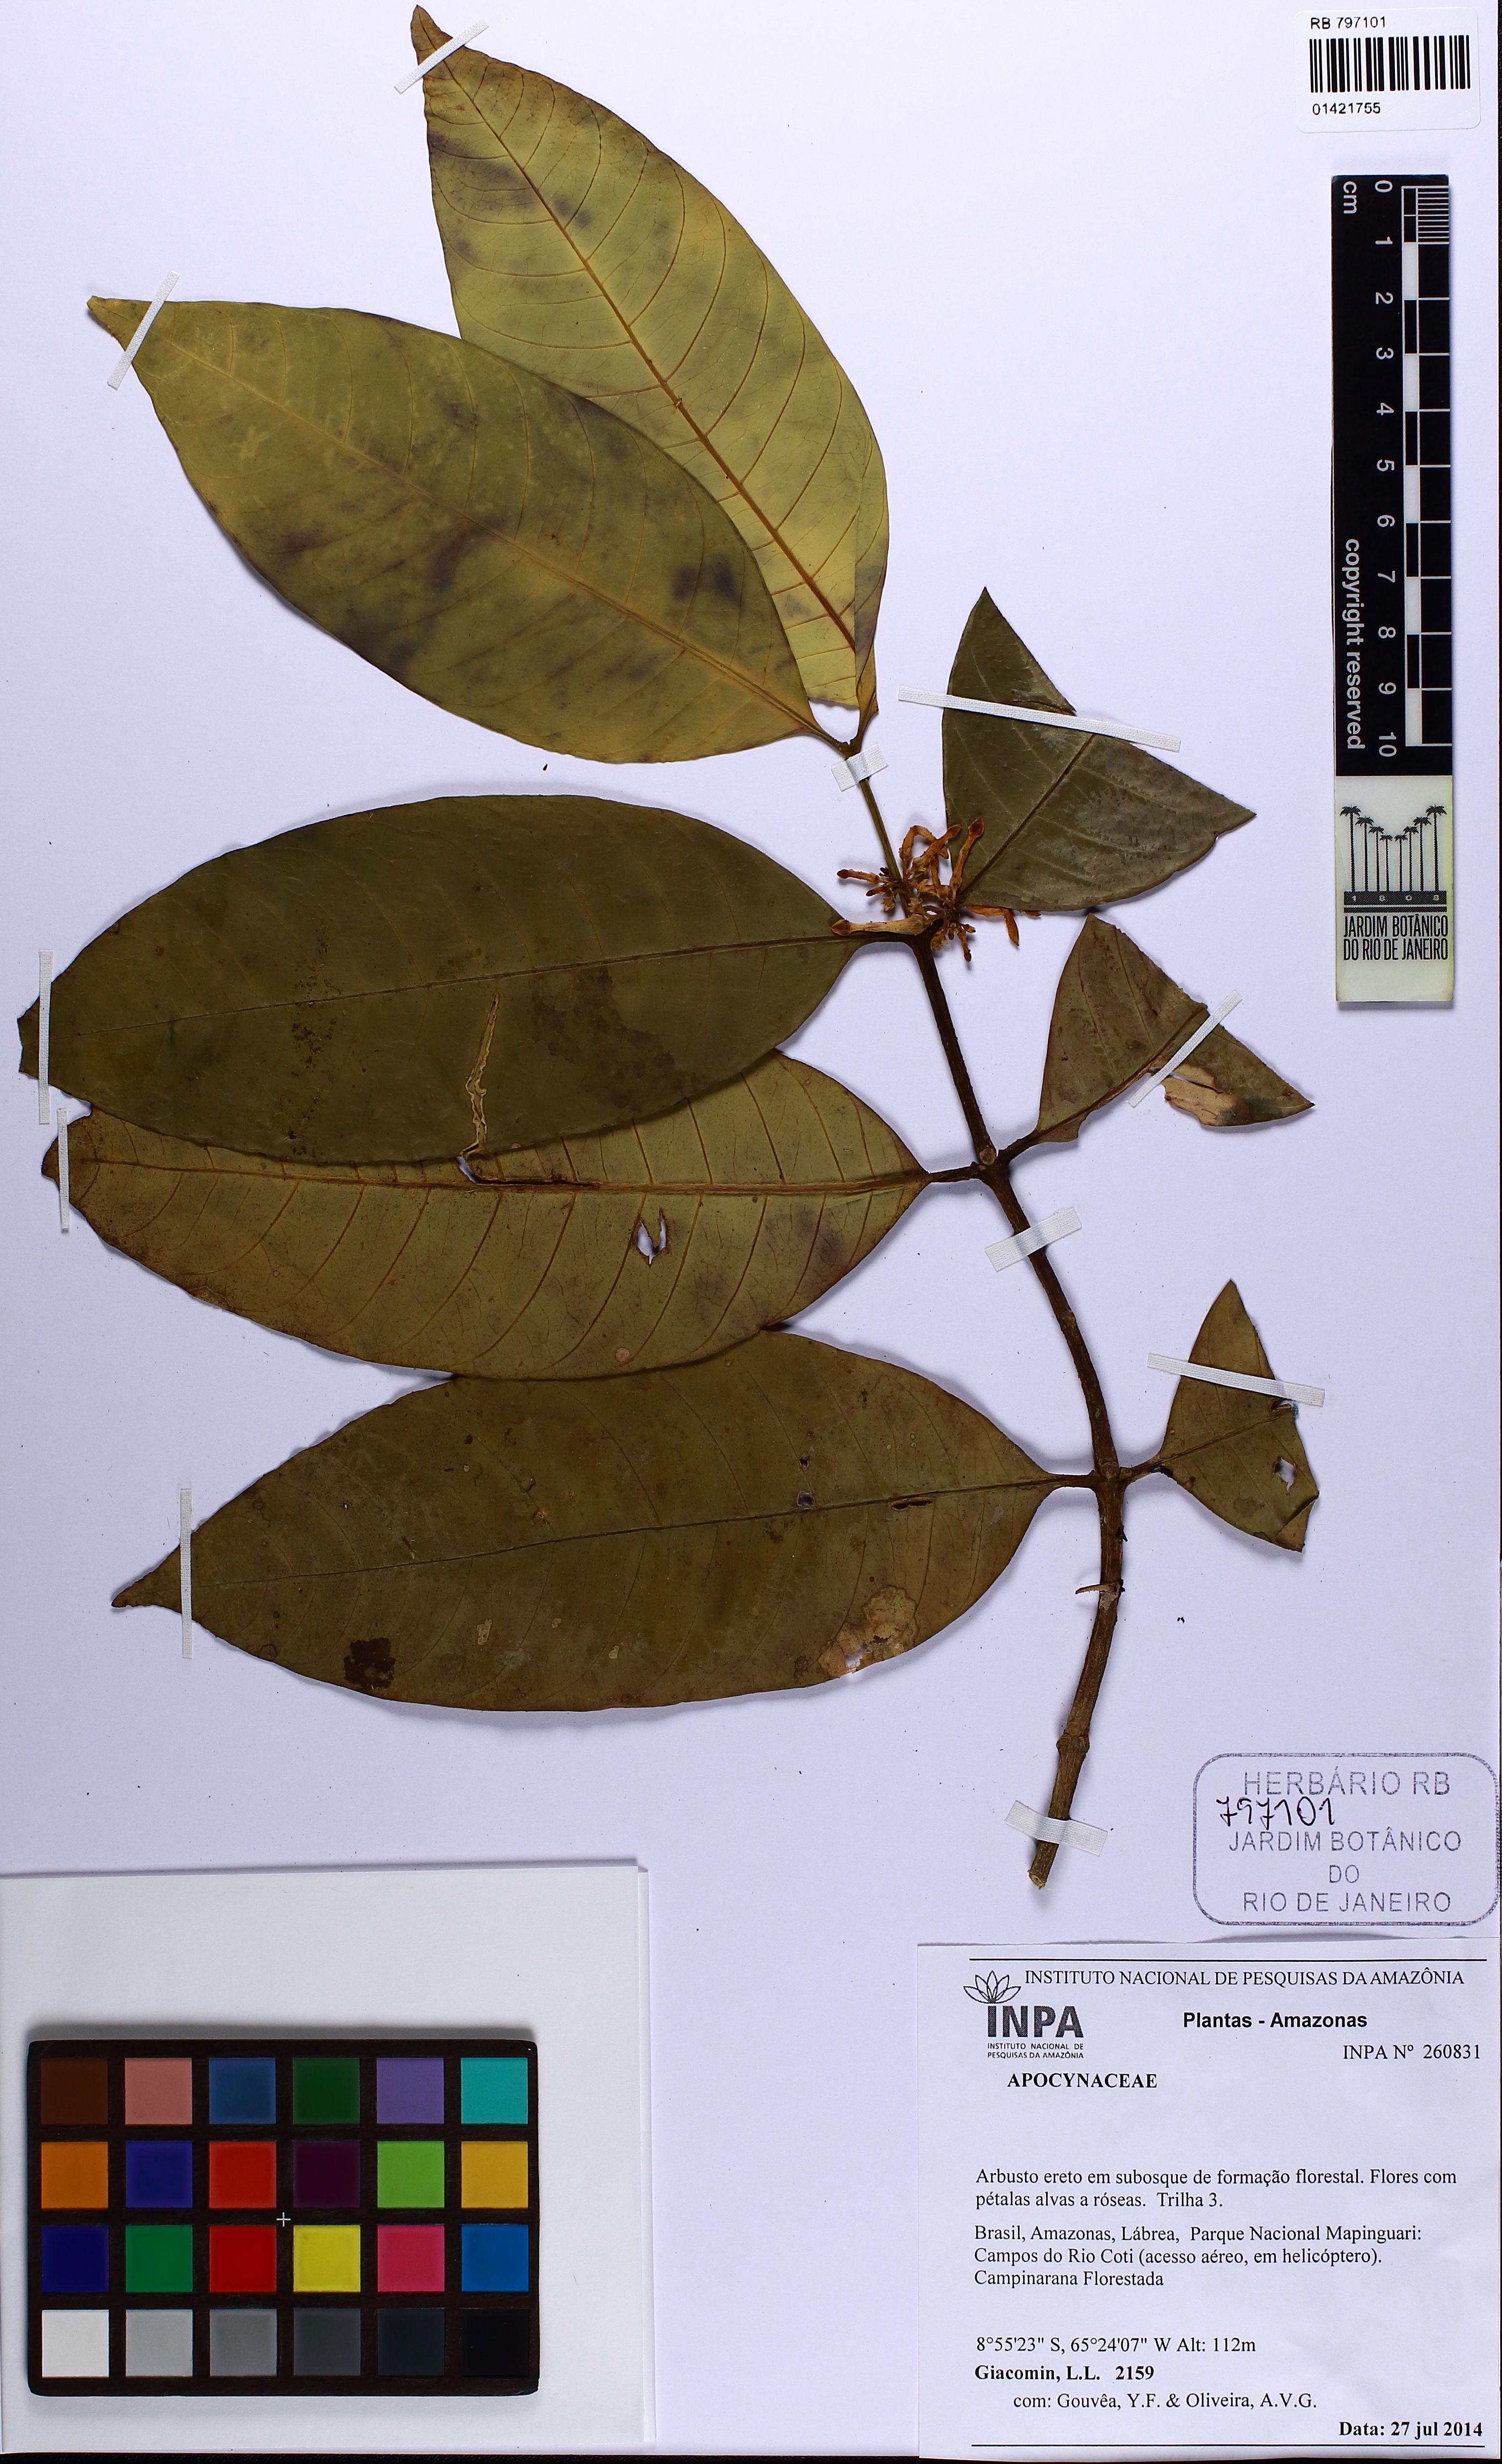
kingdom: Plantae
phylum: Tracheophyta
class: Magnoliopsida
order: Gentianales
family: Apocynaceae
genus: Tabernaemontana
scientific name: Tabernaemontana coriacea
